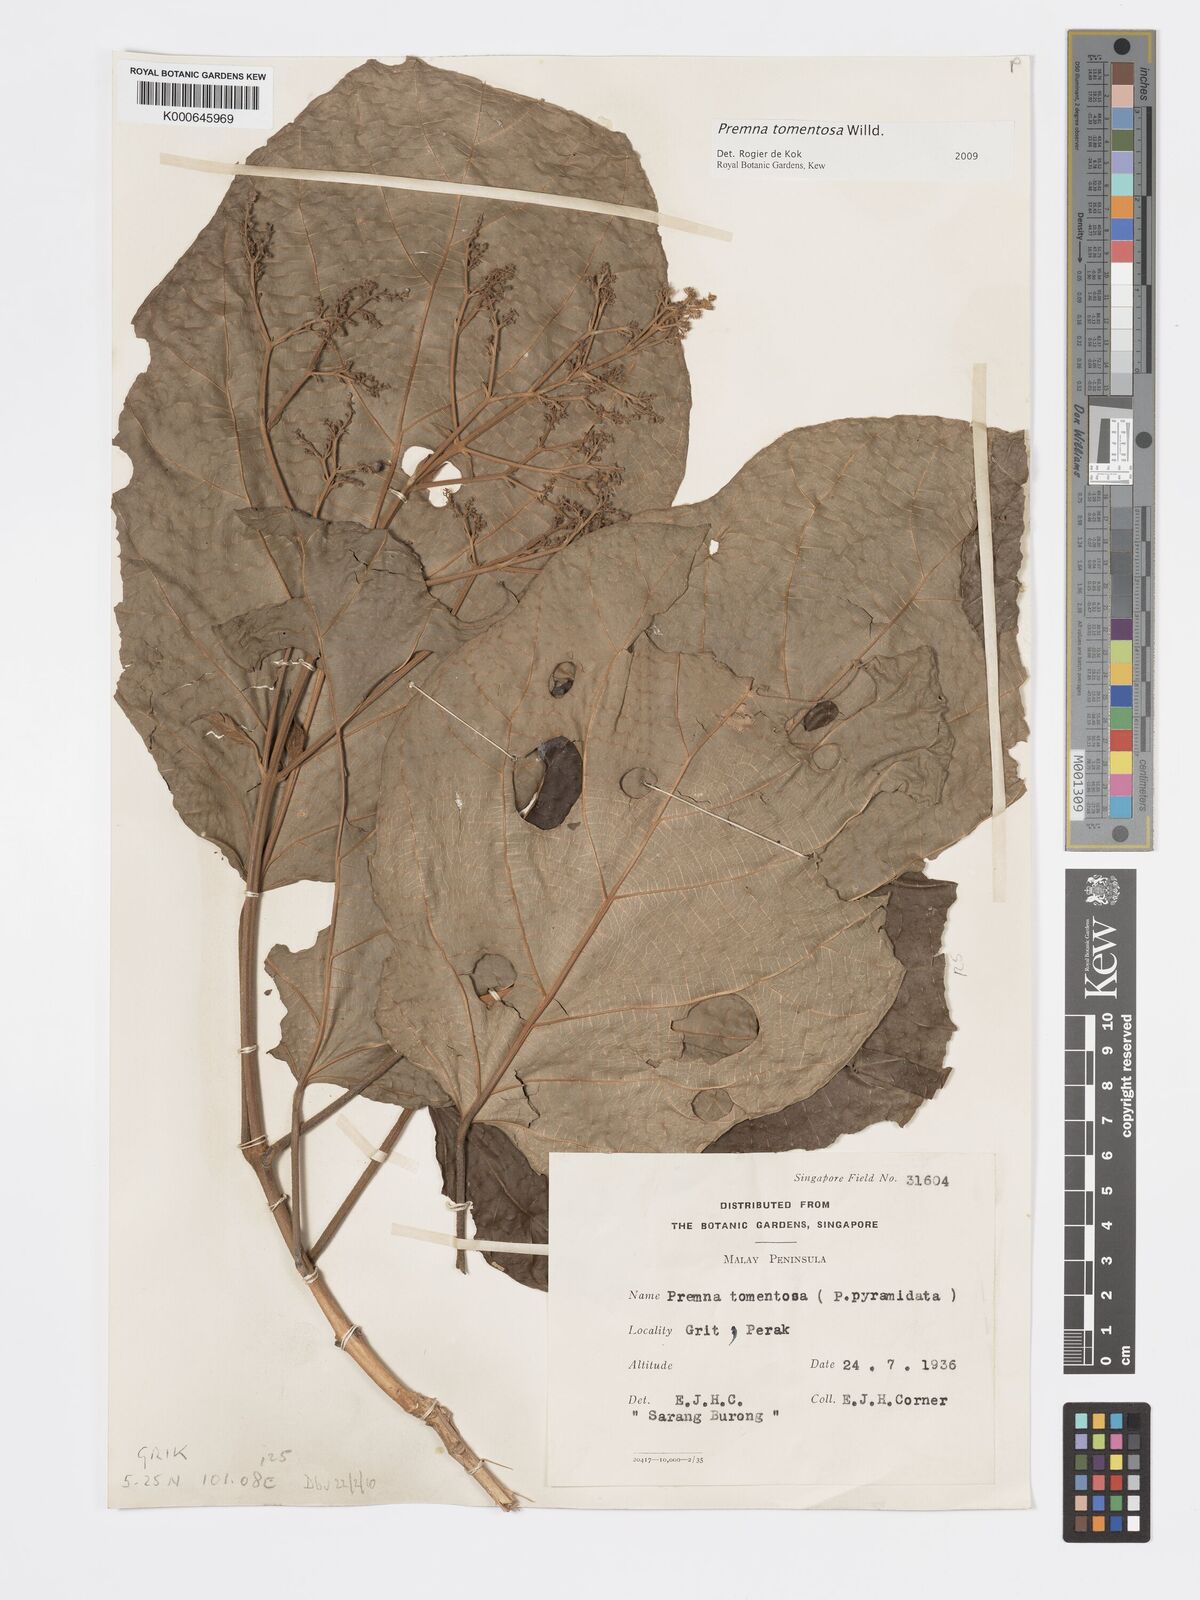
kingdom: Plantae
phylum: Tracheophyta
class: Magnoliopsida
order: Lamiales
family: Lamiaceae
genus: Premna
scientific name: Premna tomentosa
